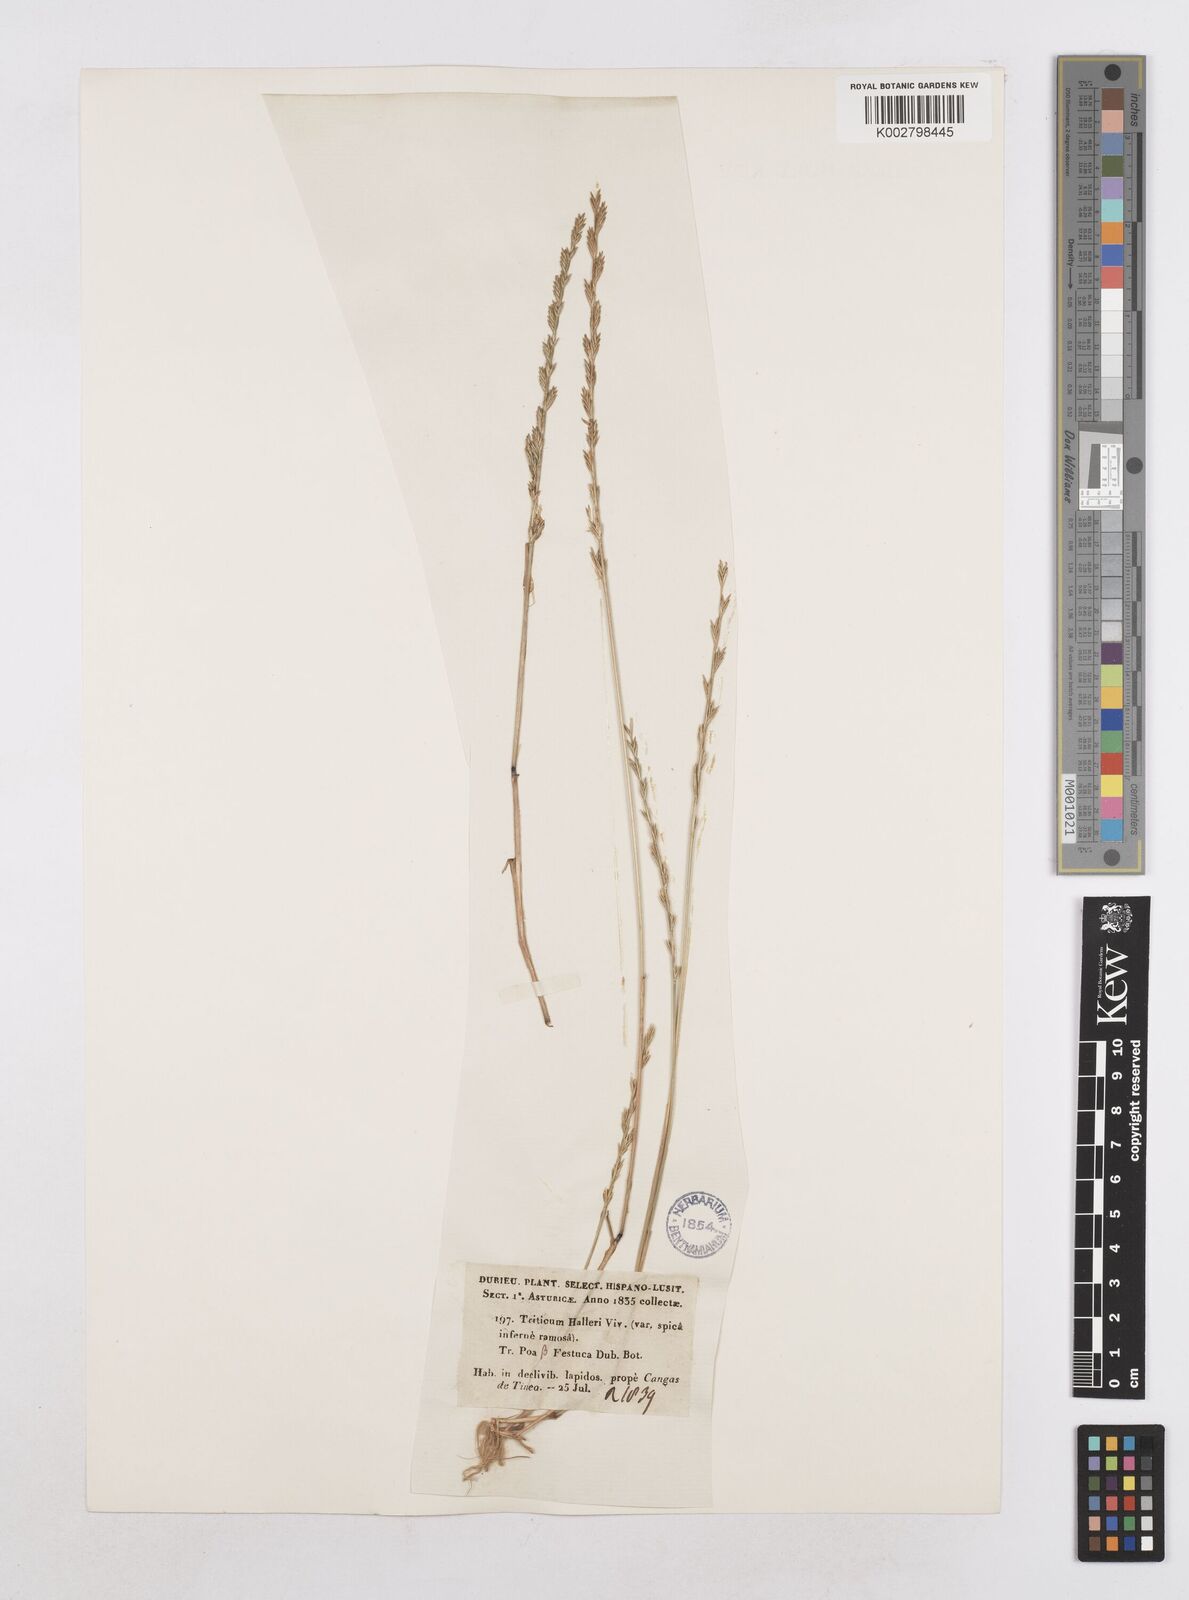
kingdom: Plantae
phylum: Tracheophyta
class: Liliopsida
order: Poales
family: Poaceae
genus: Festuca
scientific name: Festuca lachenalii
